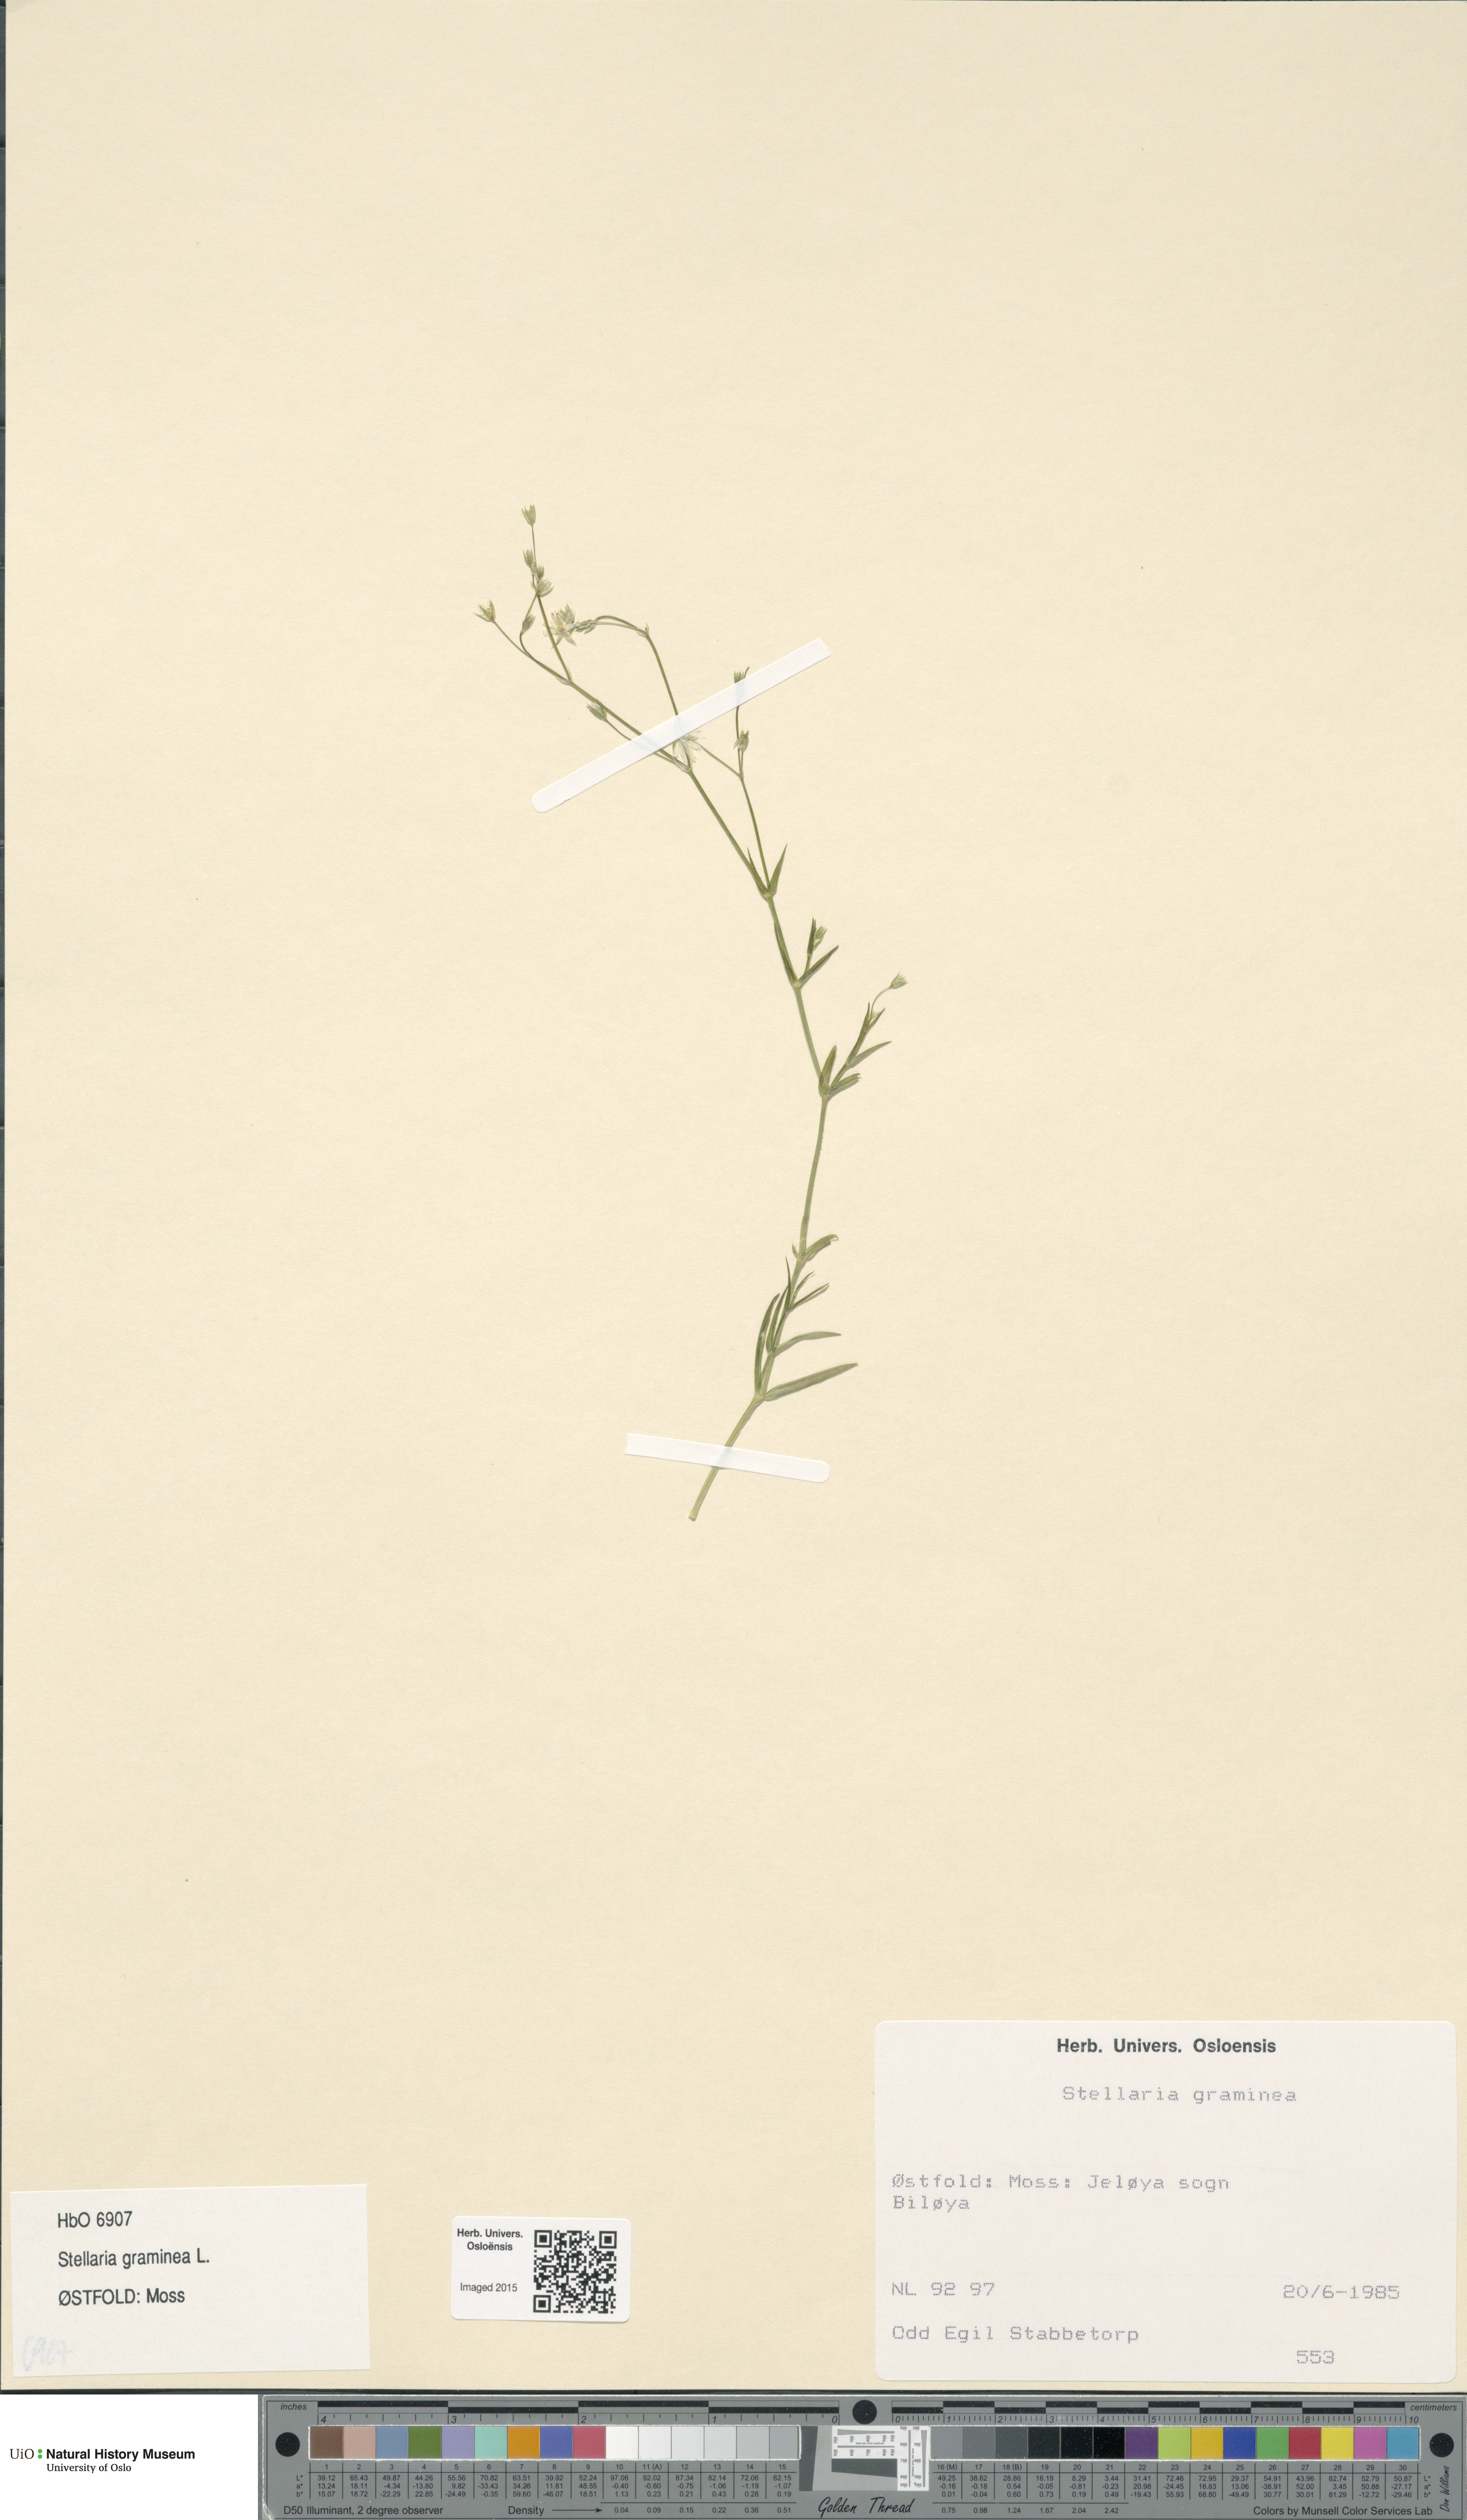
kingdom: Plantae
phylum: Tracheophyta
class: Magnoliopsida
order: Caryophyllales
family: Caryophyllaceae
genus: Stellaria
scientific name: Stellaria graminea
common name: Grass-like starwort
